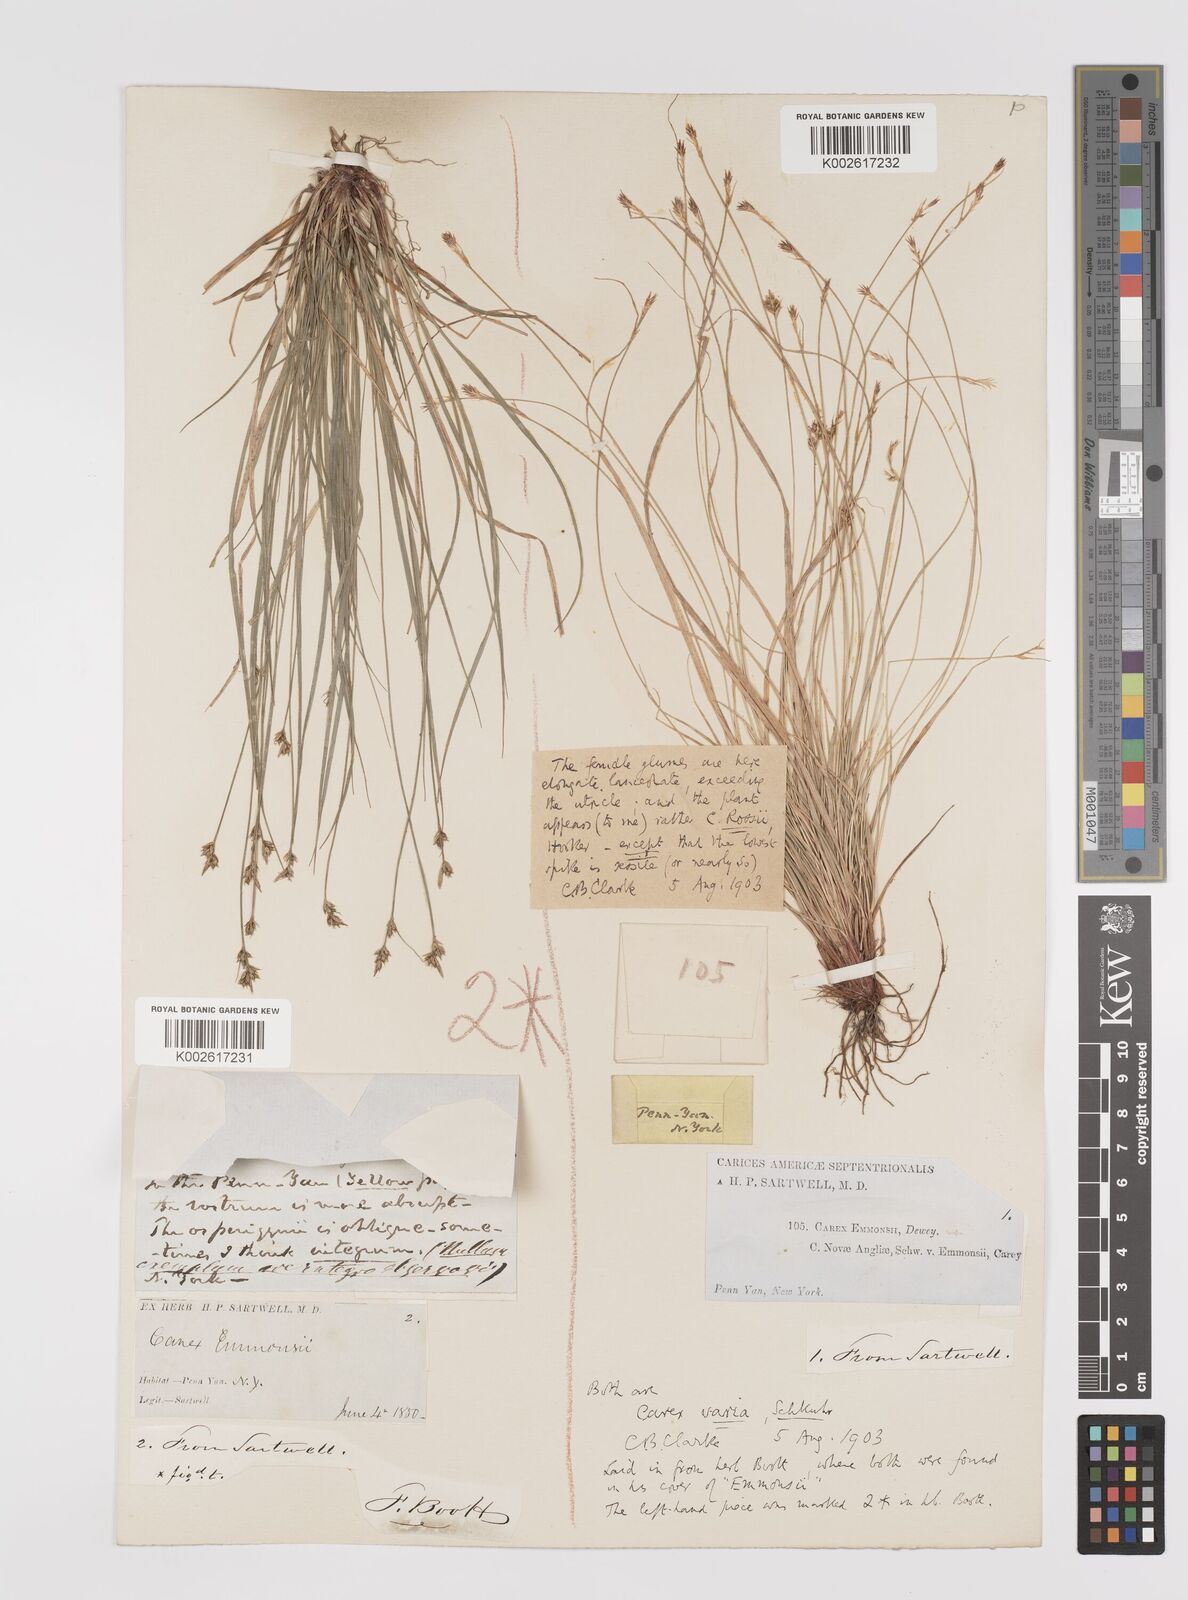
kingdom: Plantae
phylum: Tracheophyta
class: Liliopsida
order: Poales
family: Cyperaceae
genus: Carex
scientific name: Carex albicans
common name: Bellow-beaked sedge
